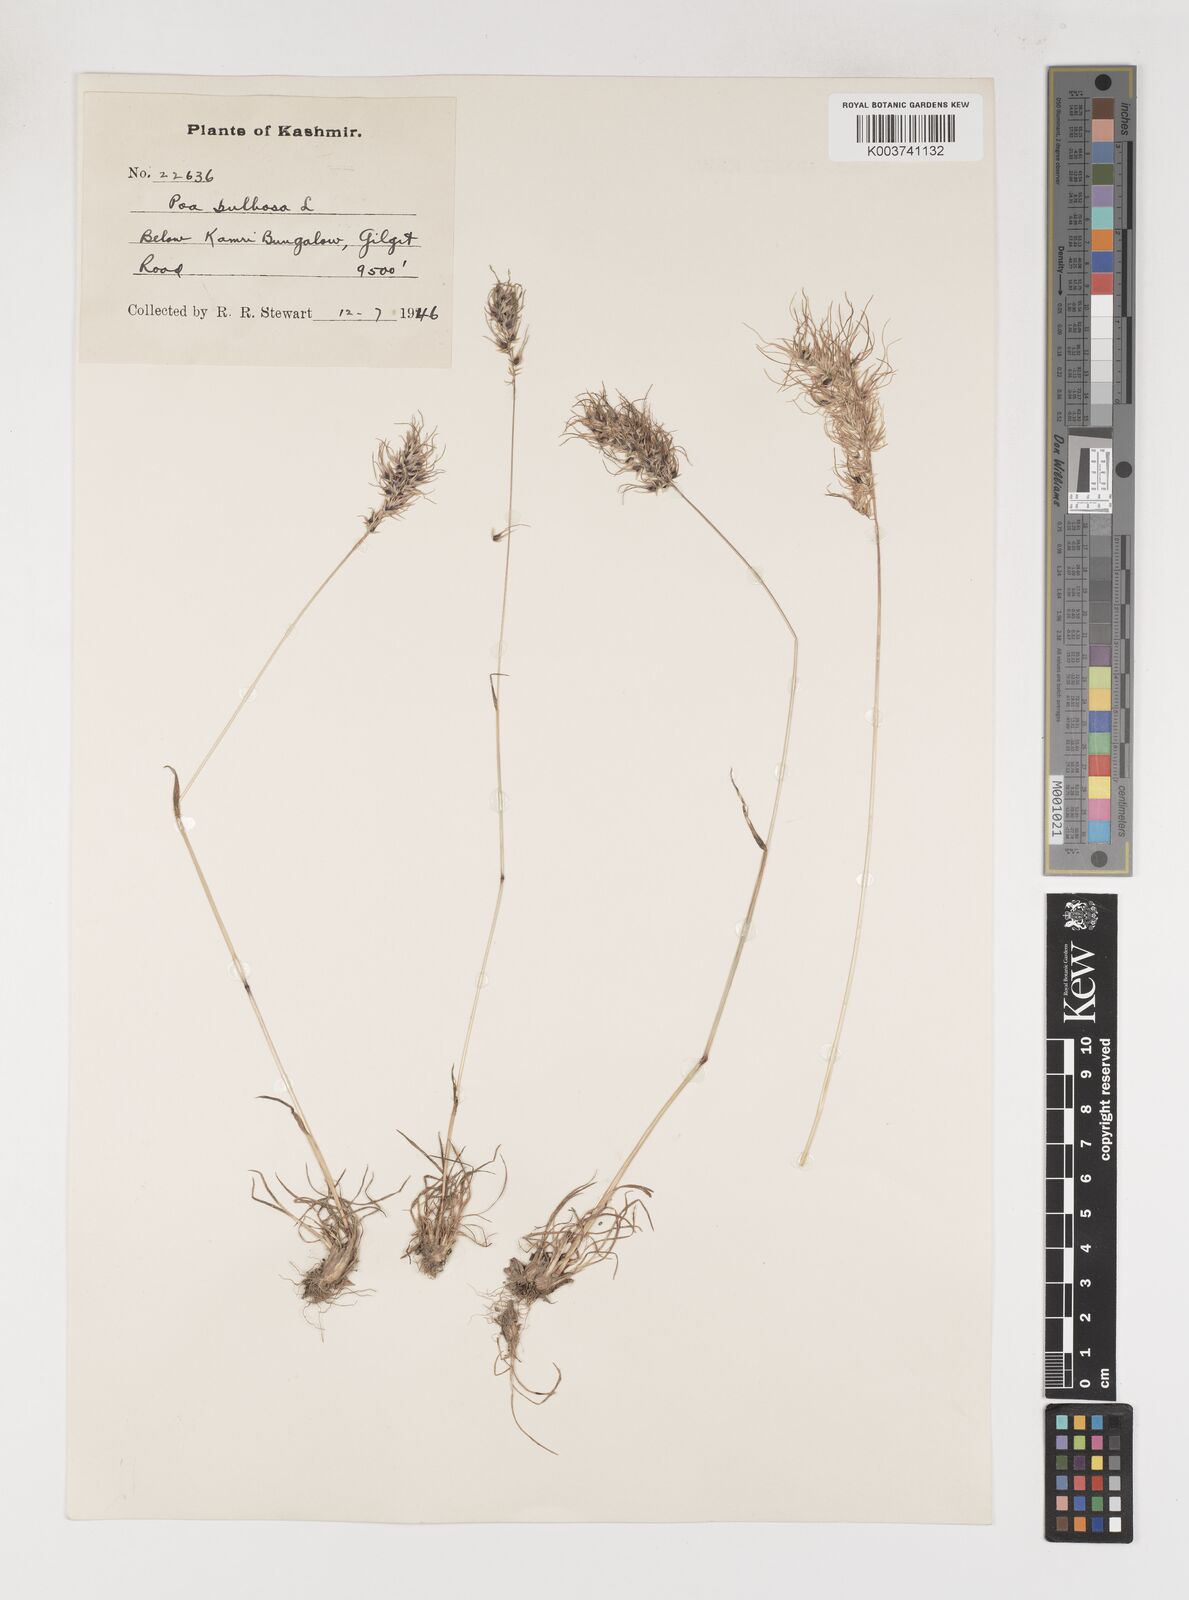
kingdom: Plantae
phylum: Tracheophyta
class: Liliopsida
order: Poales
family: Poaceae
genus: Poa
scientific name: Poa bulbosa
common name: Bulbous bluegrass
